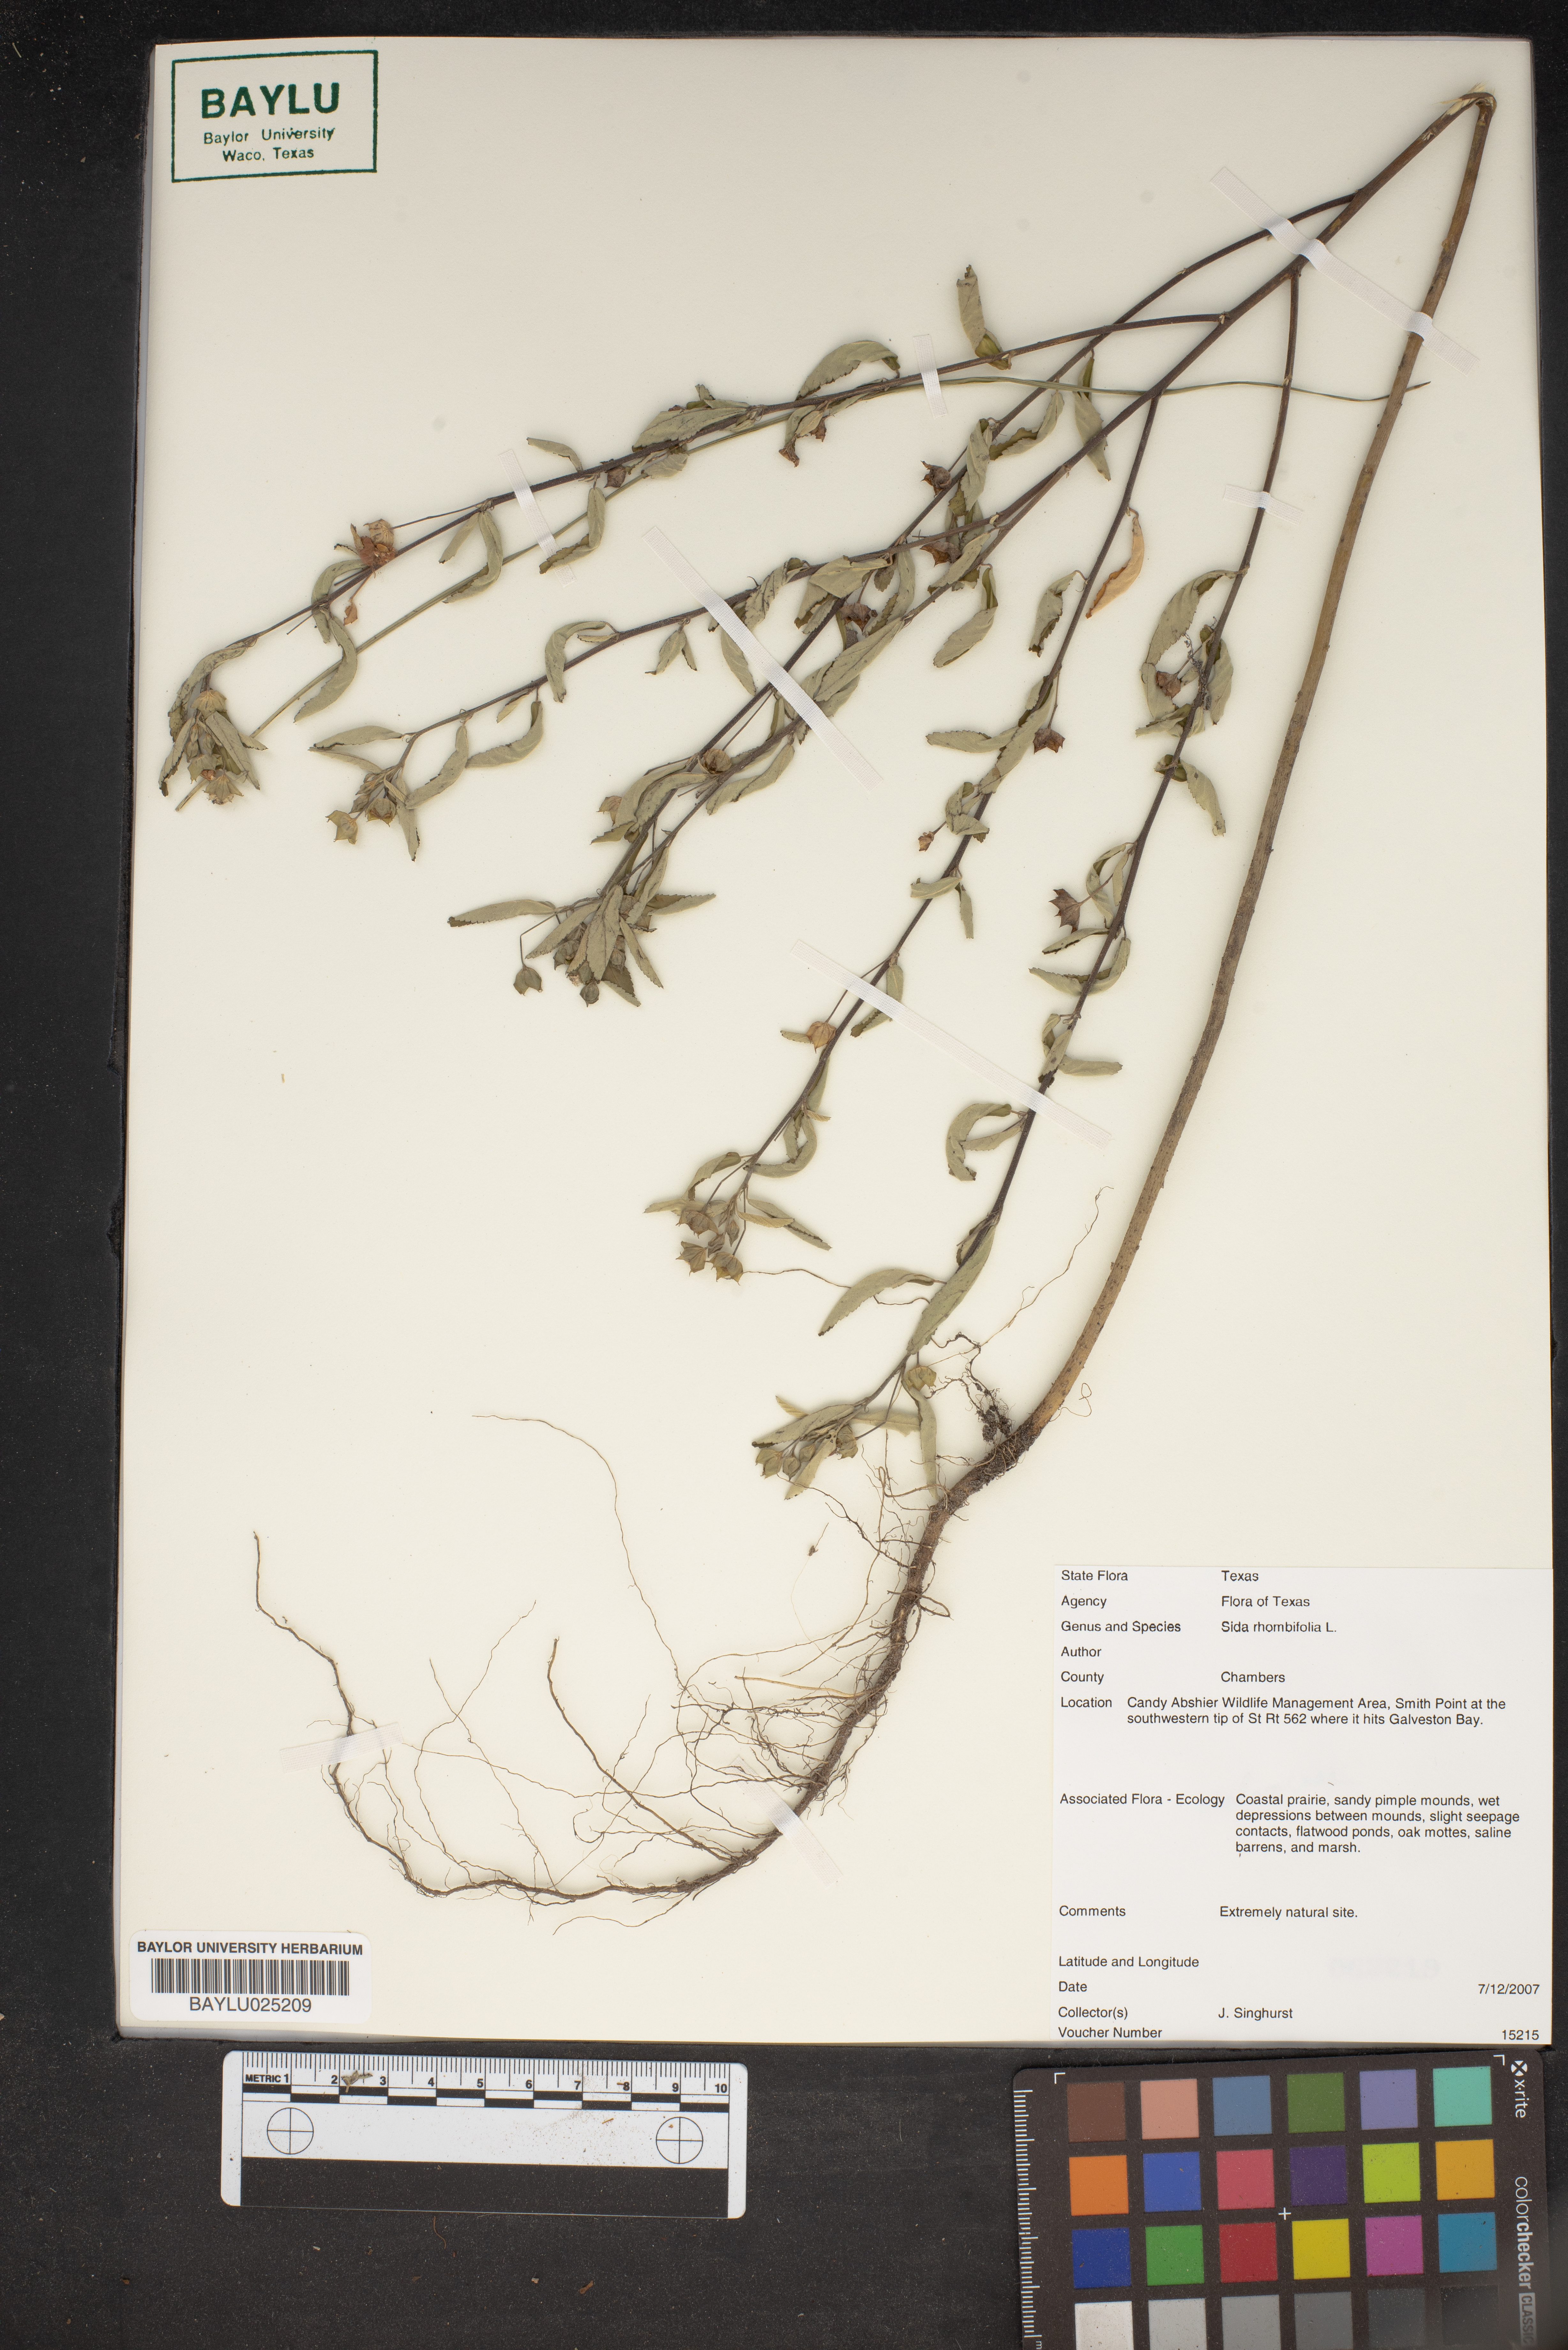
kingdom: Plantae
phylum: Tracheophyta
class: Magnoliopsida
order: Malvales
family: Malvaceae
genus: Sida
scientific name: Sida rhombifolia
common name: Queensland-hemp
